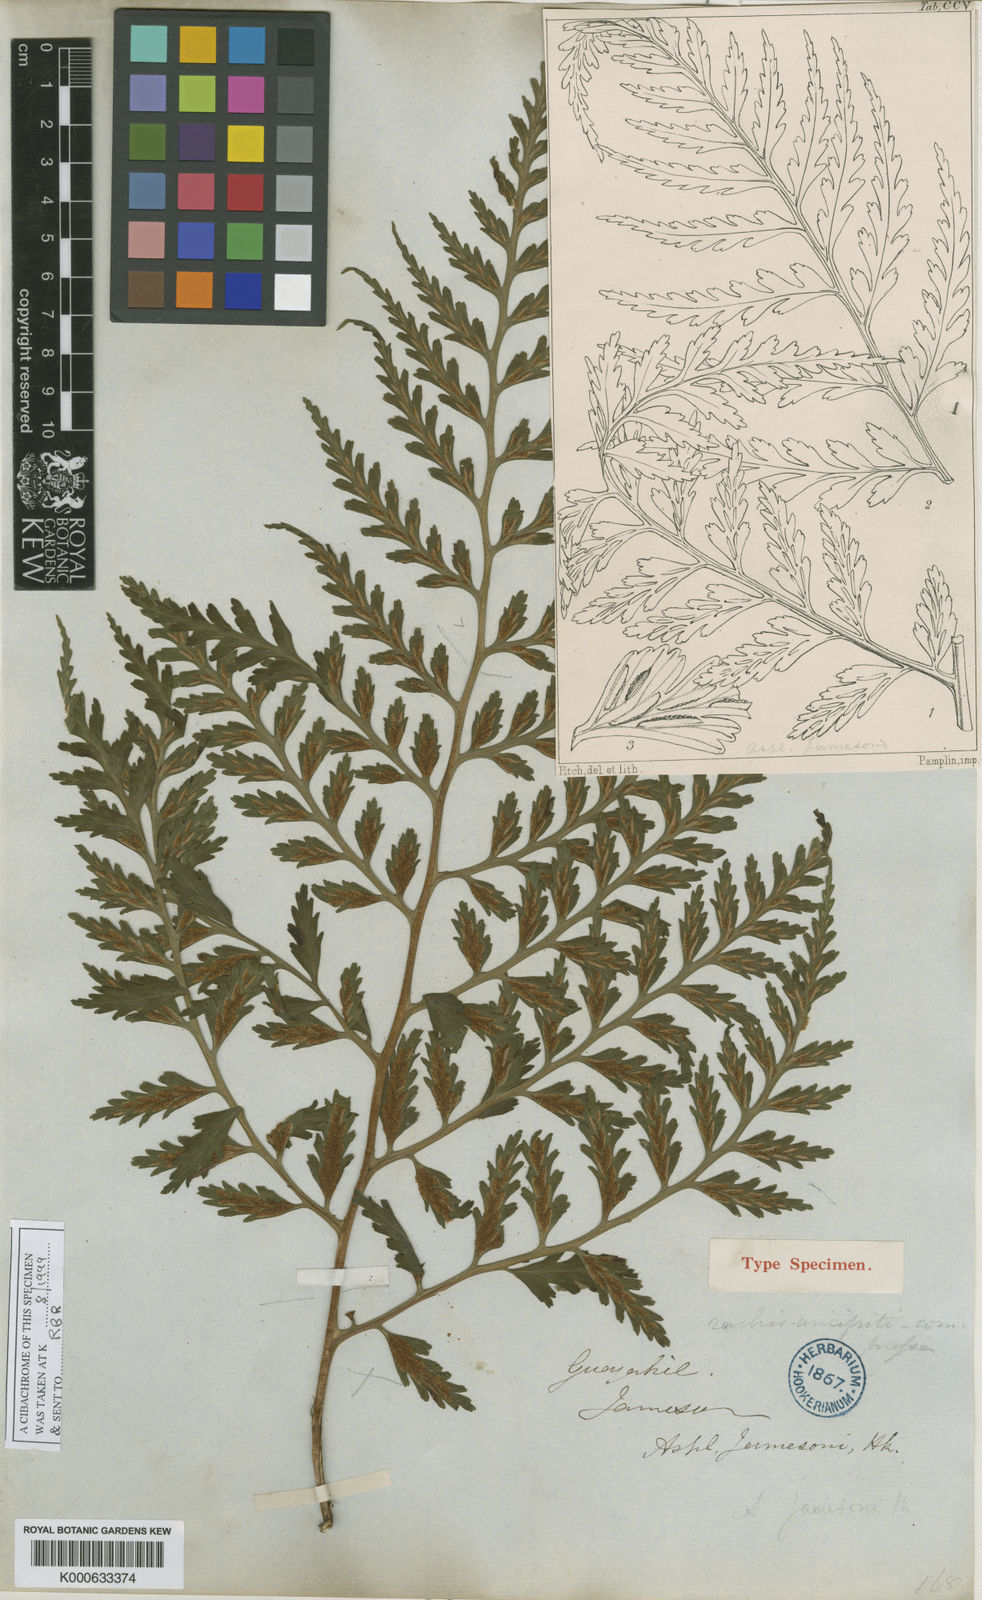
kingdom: Plantae
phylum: Tracheophyta
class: Polypodiopsida
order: Polypodiales
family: Aspleniaceae
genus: Asplenium
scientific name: Asplenium squamosum
